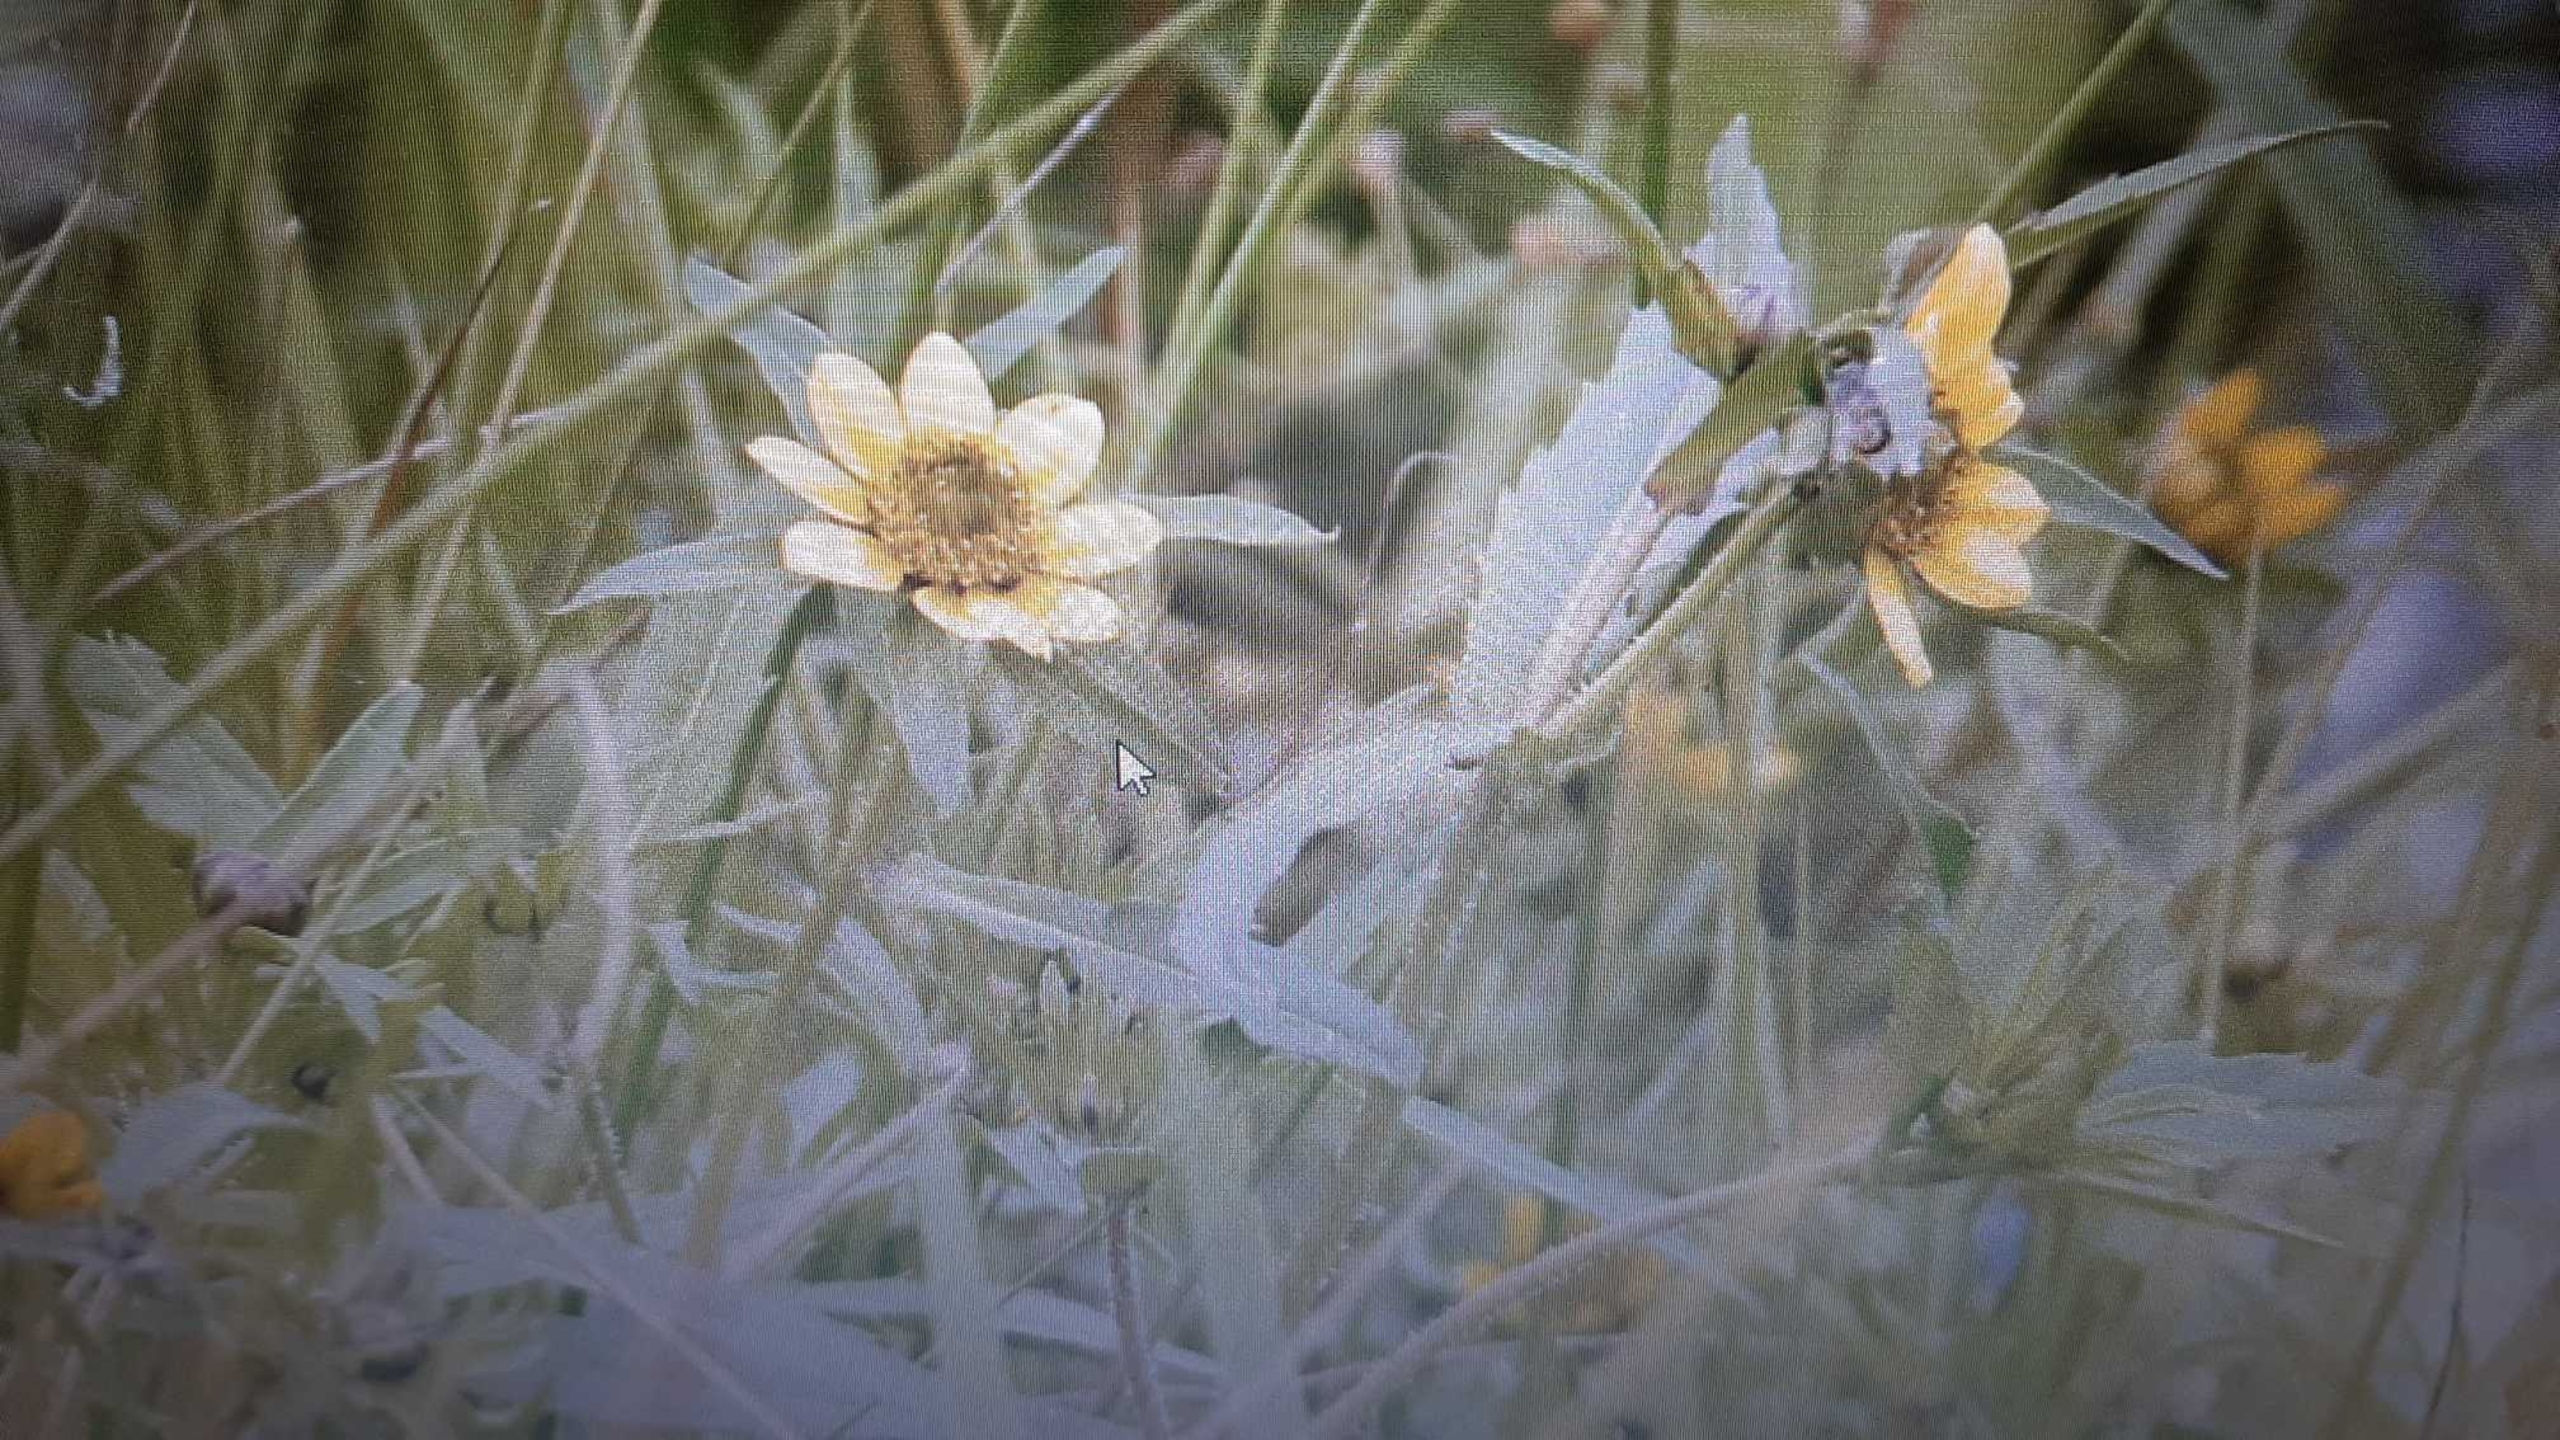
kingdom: Plantae
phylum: Tracheophyta
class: Magnoliopsida
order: Asterales
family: Asteraceae
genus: Bidens
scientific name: Bidens cernua
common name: Nikkende brøndsel
